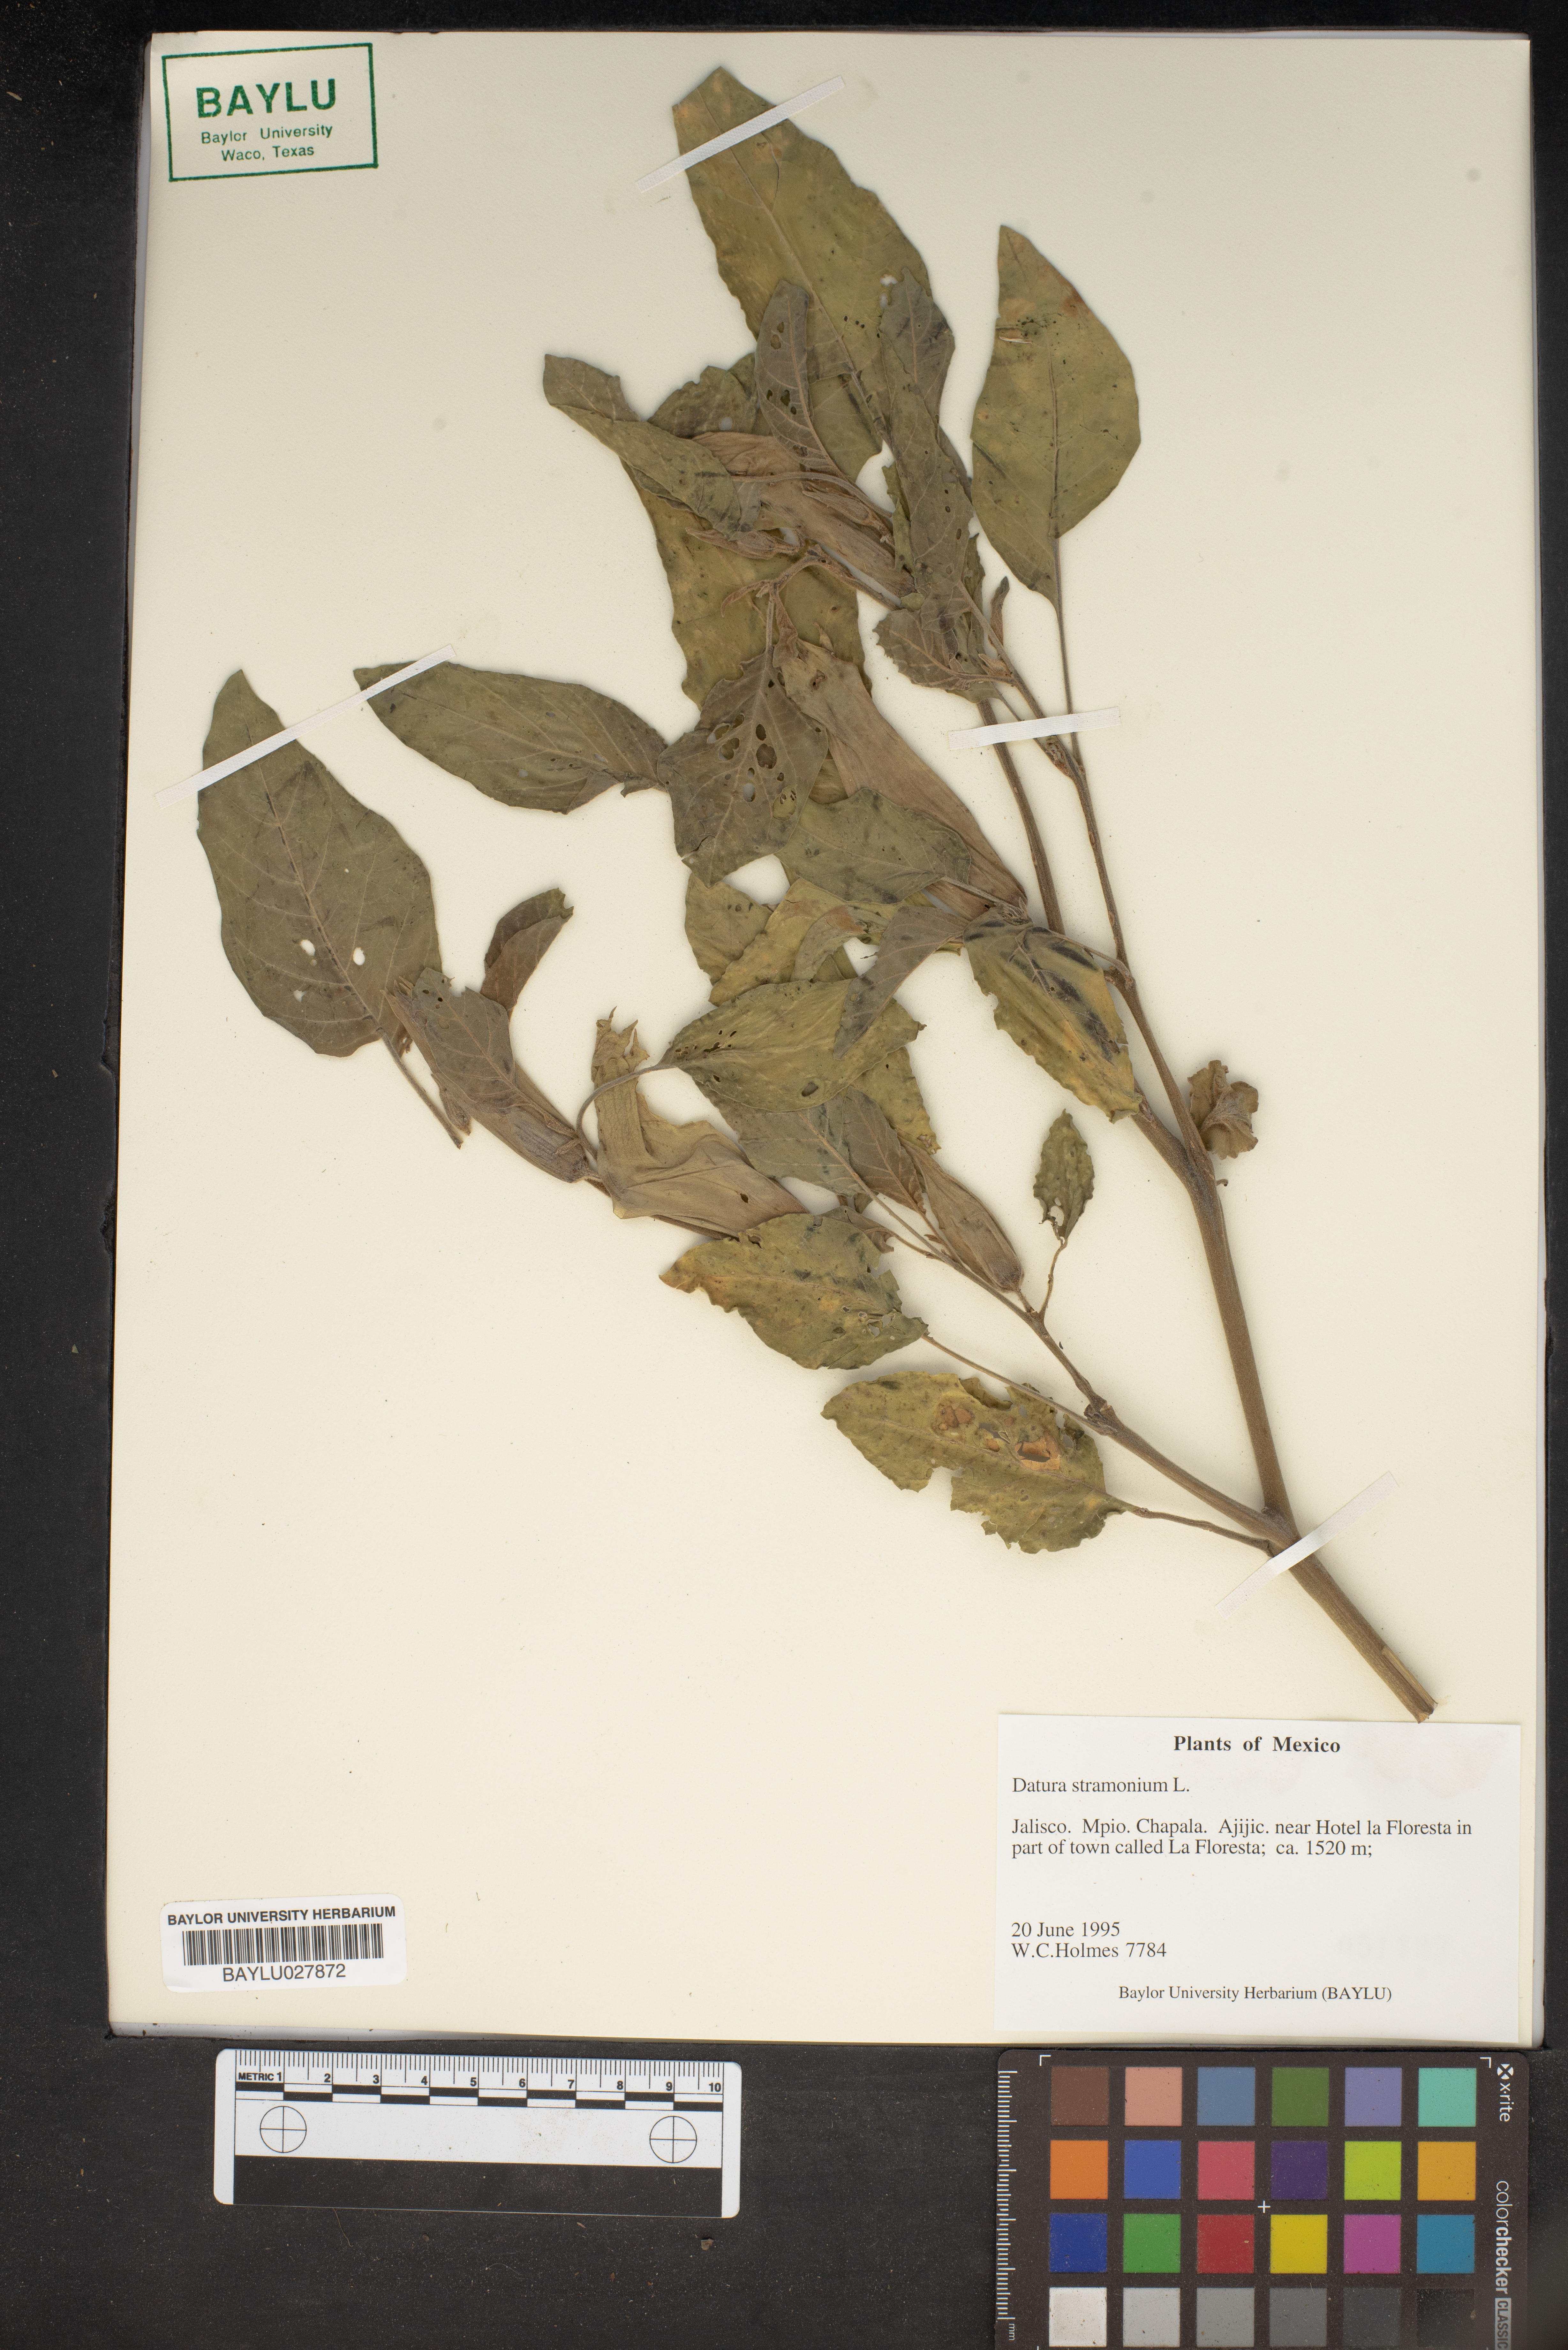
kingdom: Plantae
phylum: Tracheophyta
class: Magnoliopsida
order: Solanales
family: Solanaceae
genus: Datura
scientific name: Datura stramonium
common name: Thorn-apple
